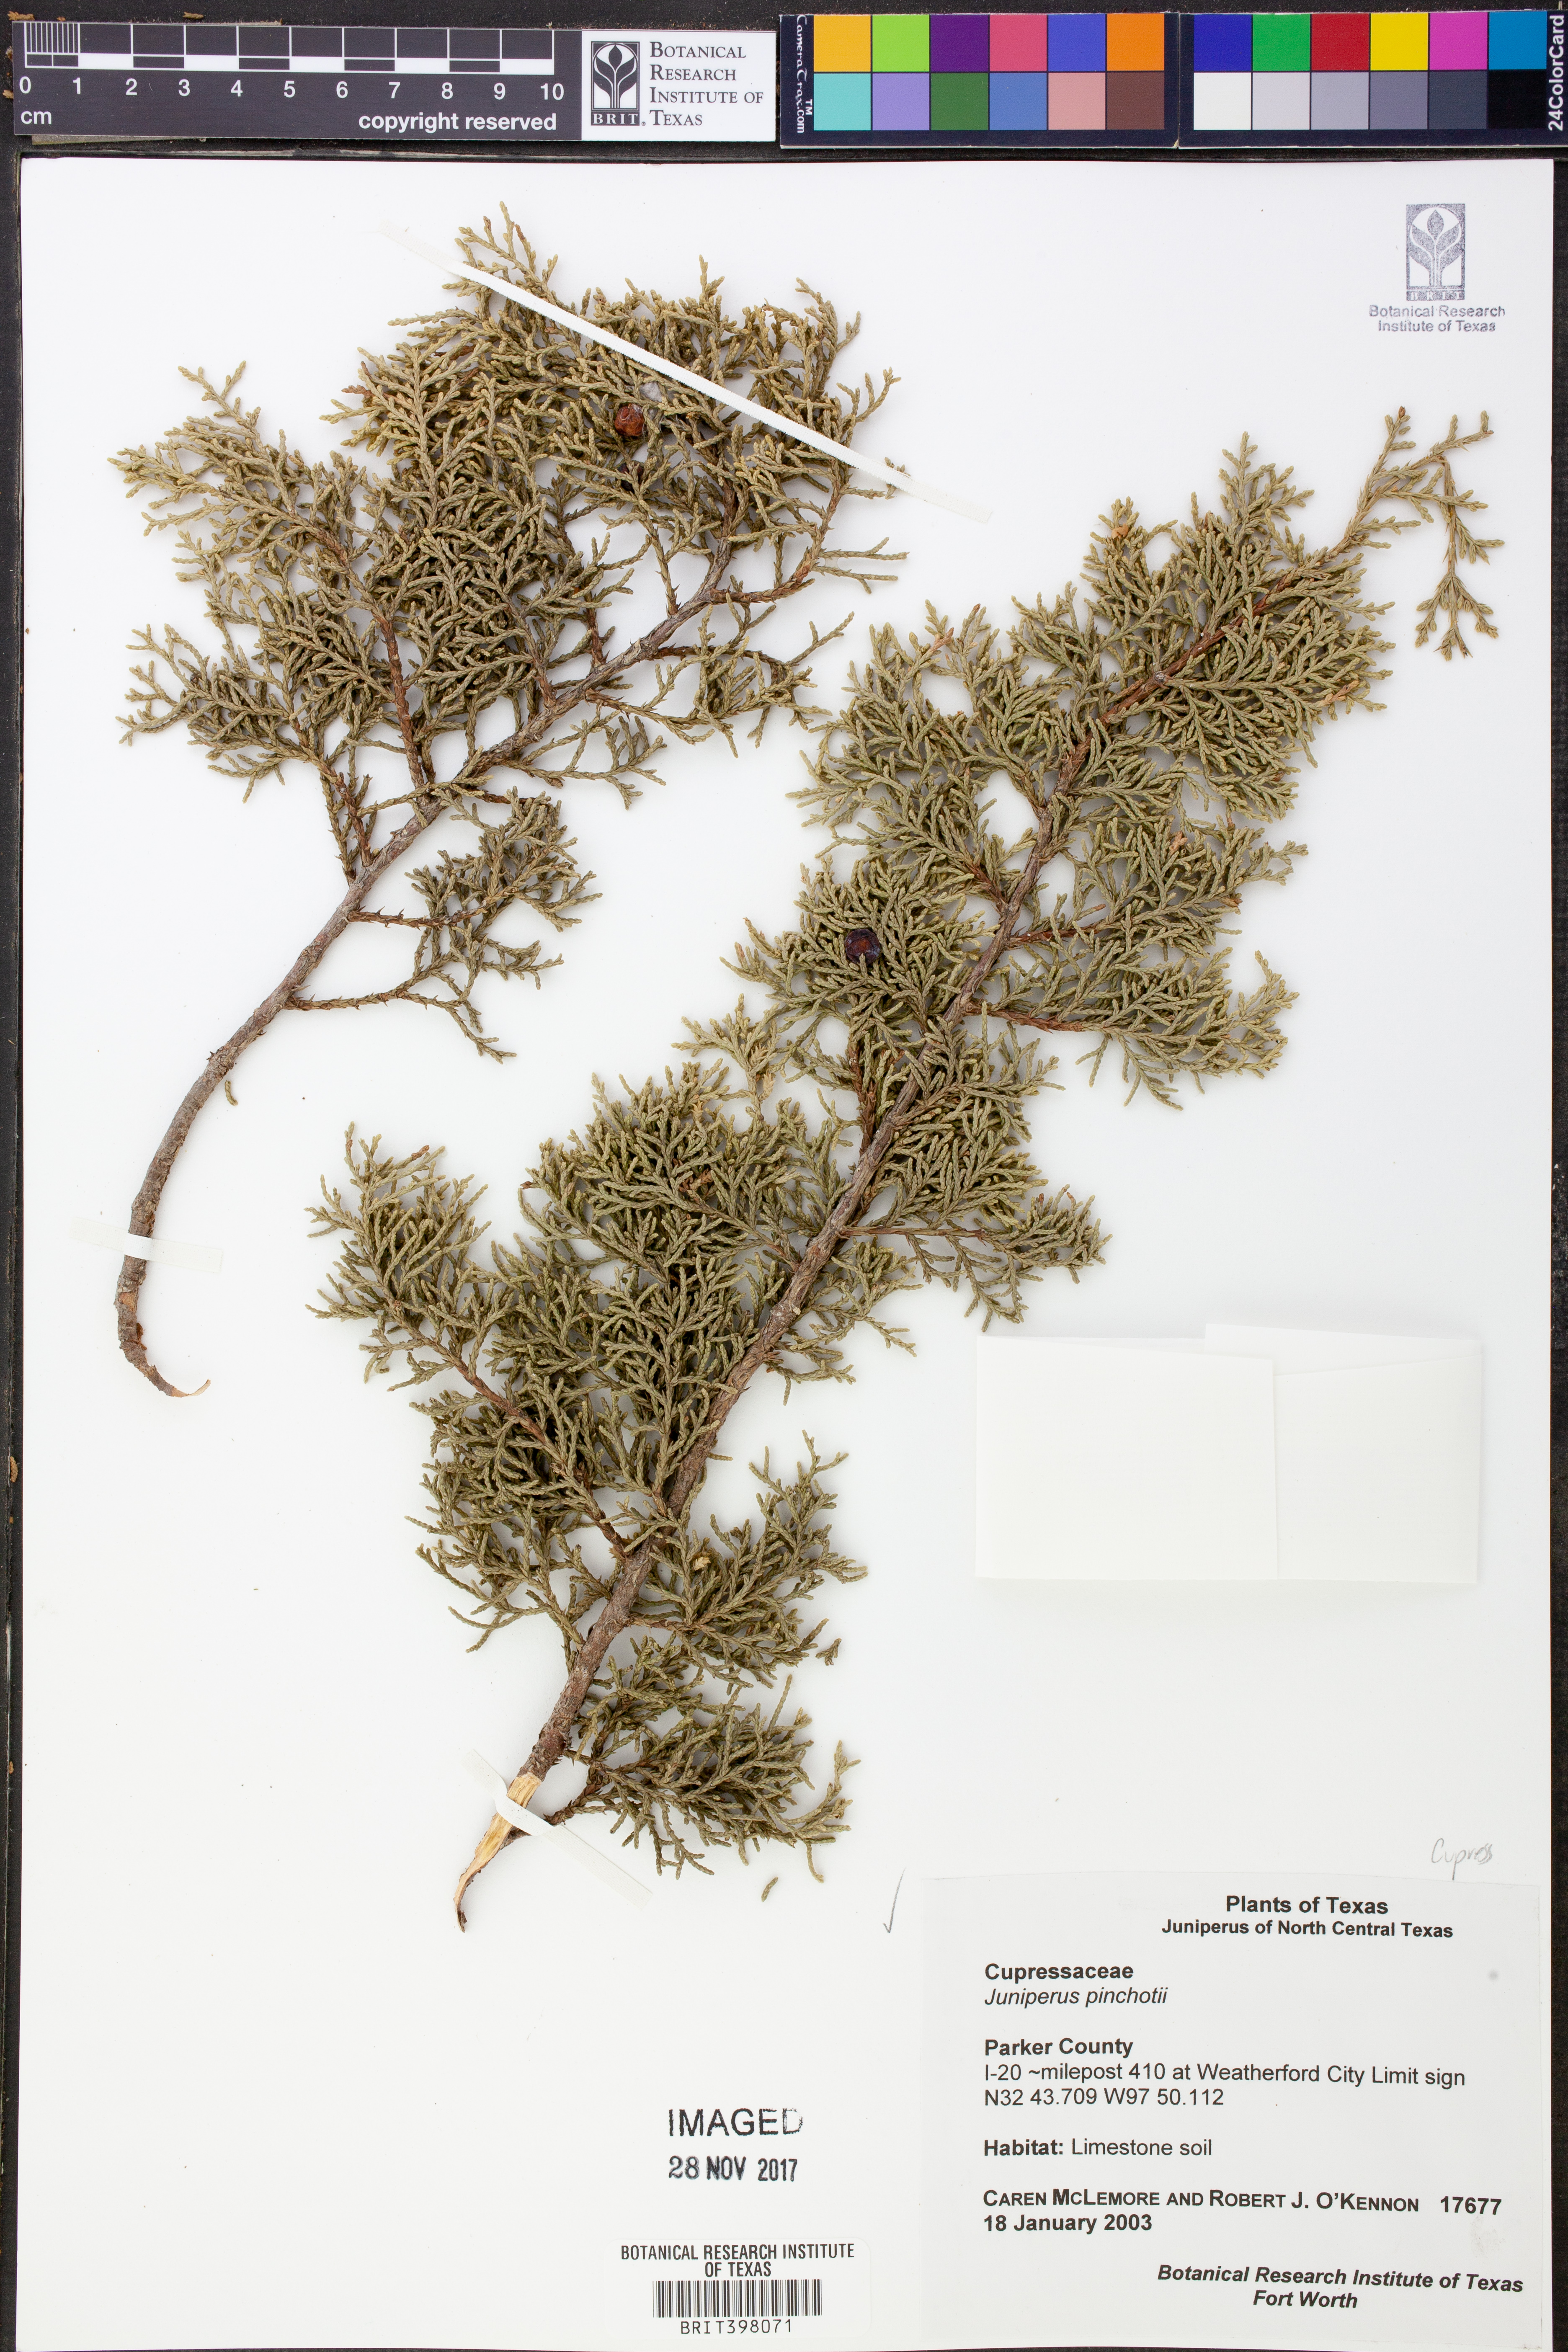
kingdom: Plantae
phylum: Tracheophyta
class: Pinopsida
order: Pinales
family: Cupressaceae
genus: Juniperus
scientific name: Juniperus pinchotii
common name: Pinchot juniper
